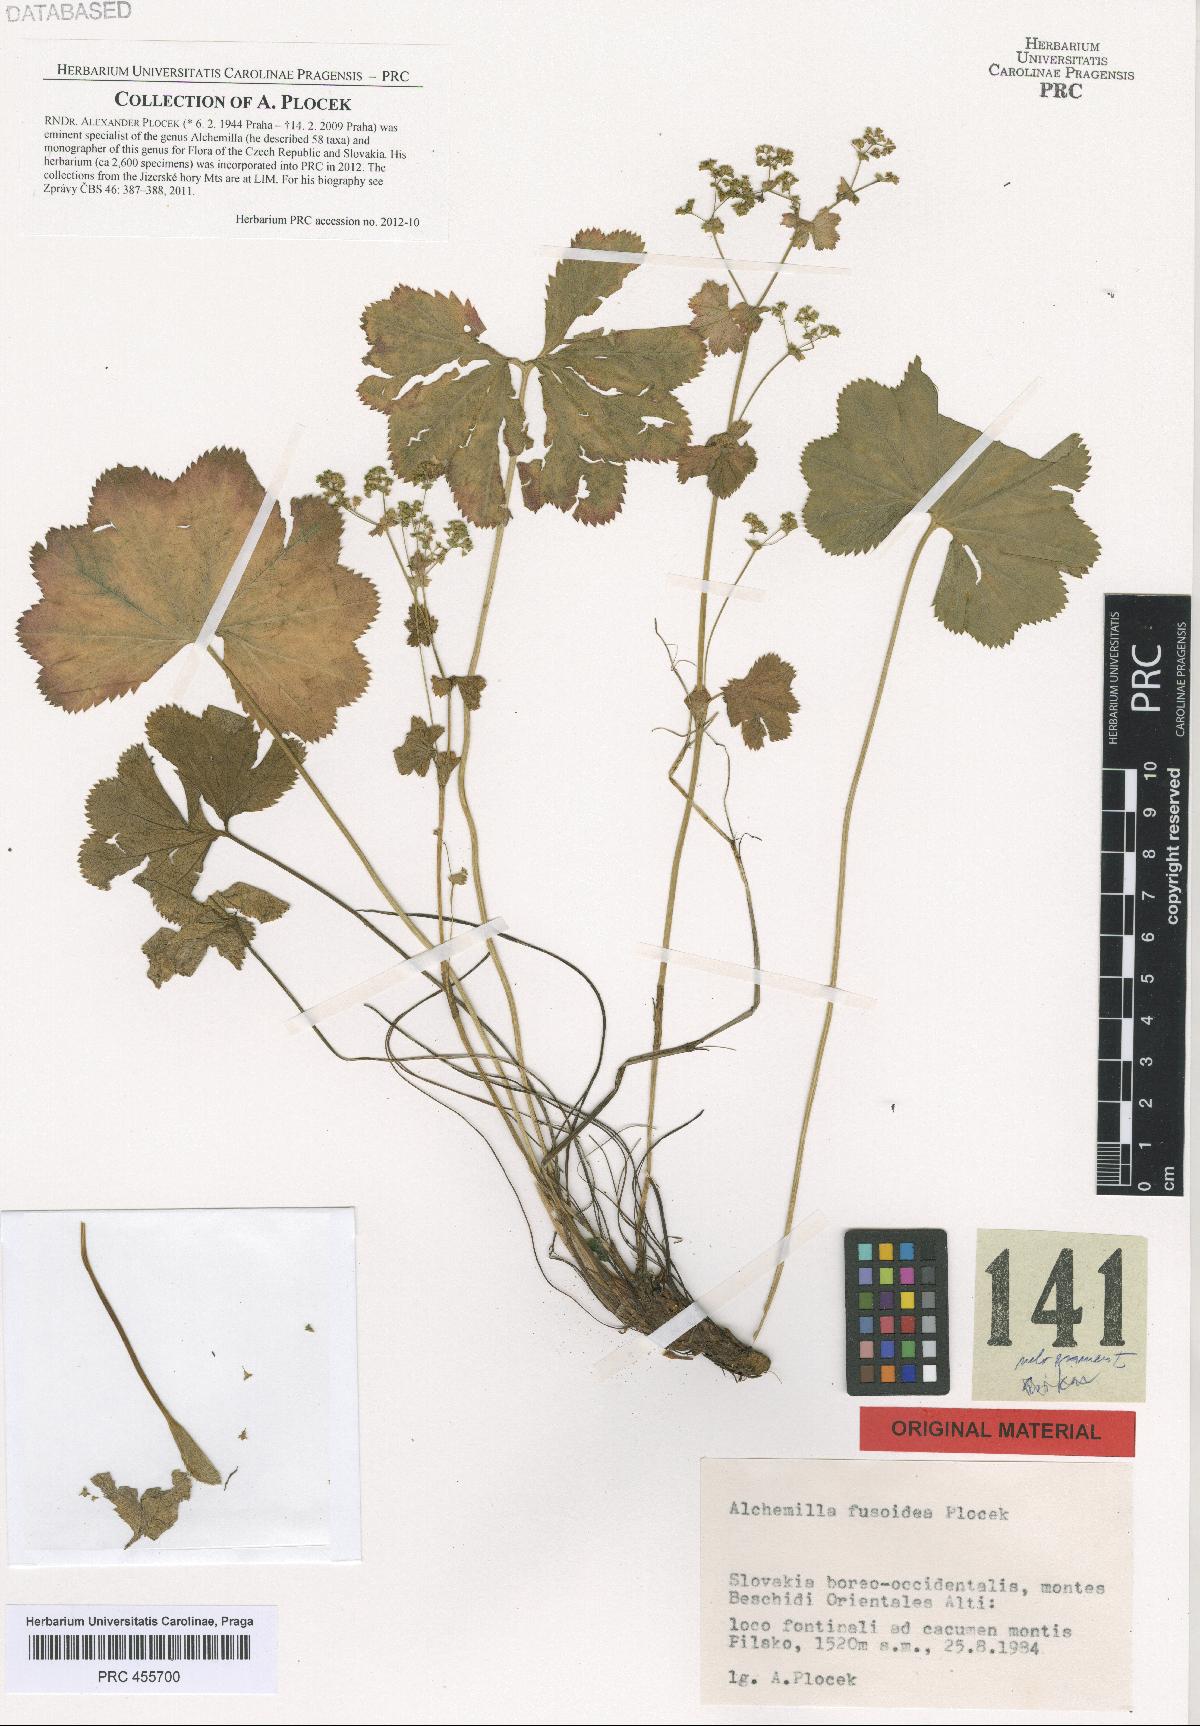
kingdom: Plantae
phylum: Tracheophyta
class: Magnoliopsida
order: Rosales
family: Rosaceae
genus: Alchemilla
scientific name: Alchemilla fusoidea
